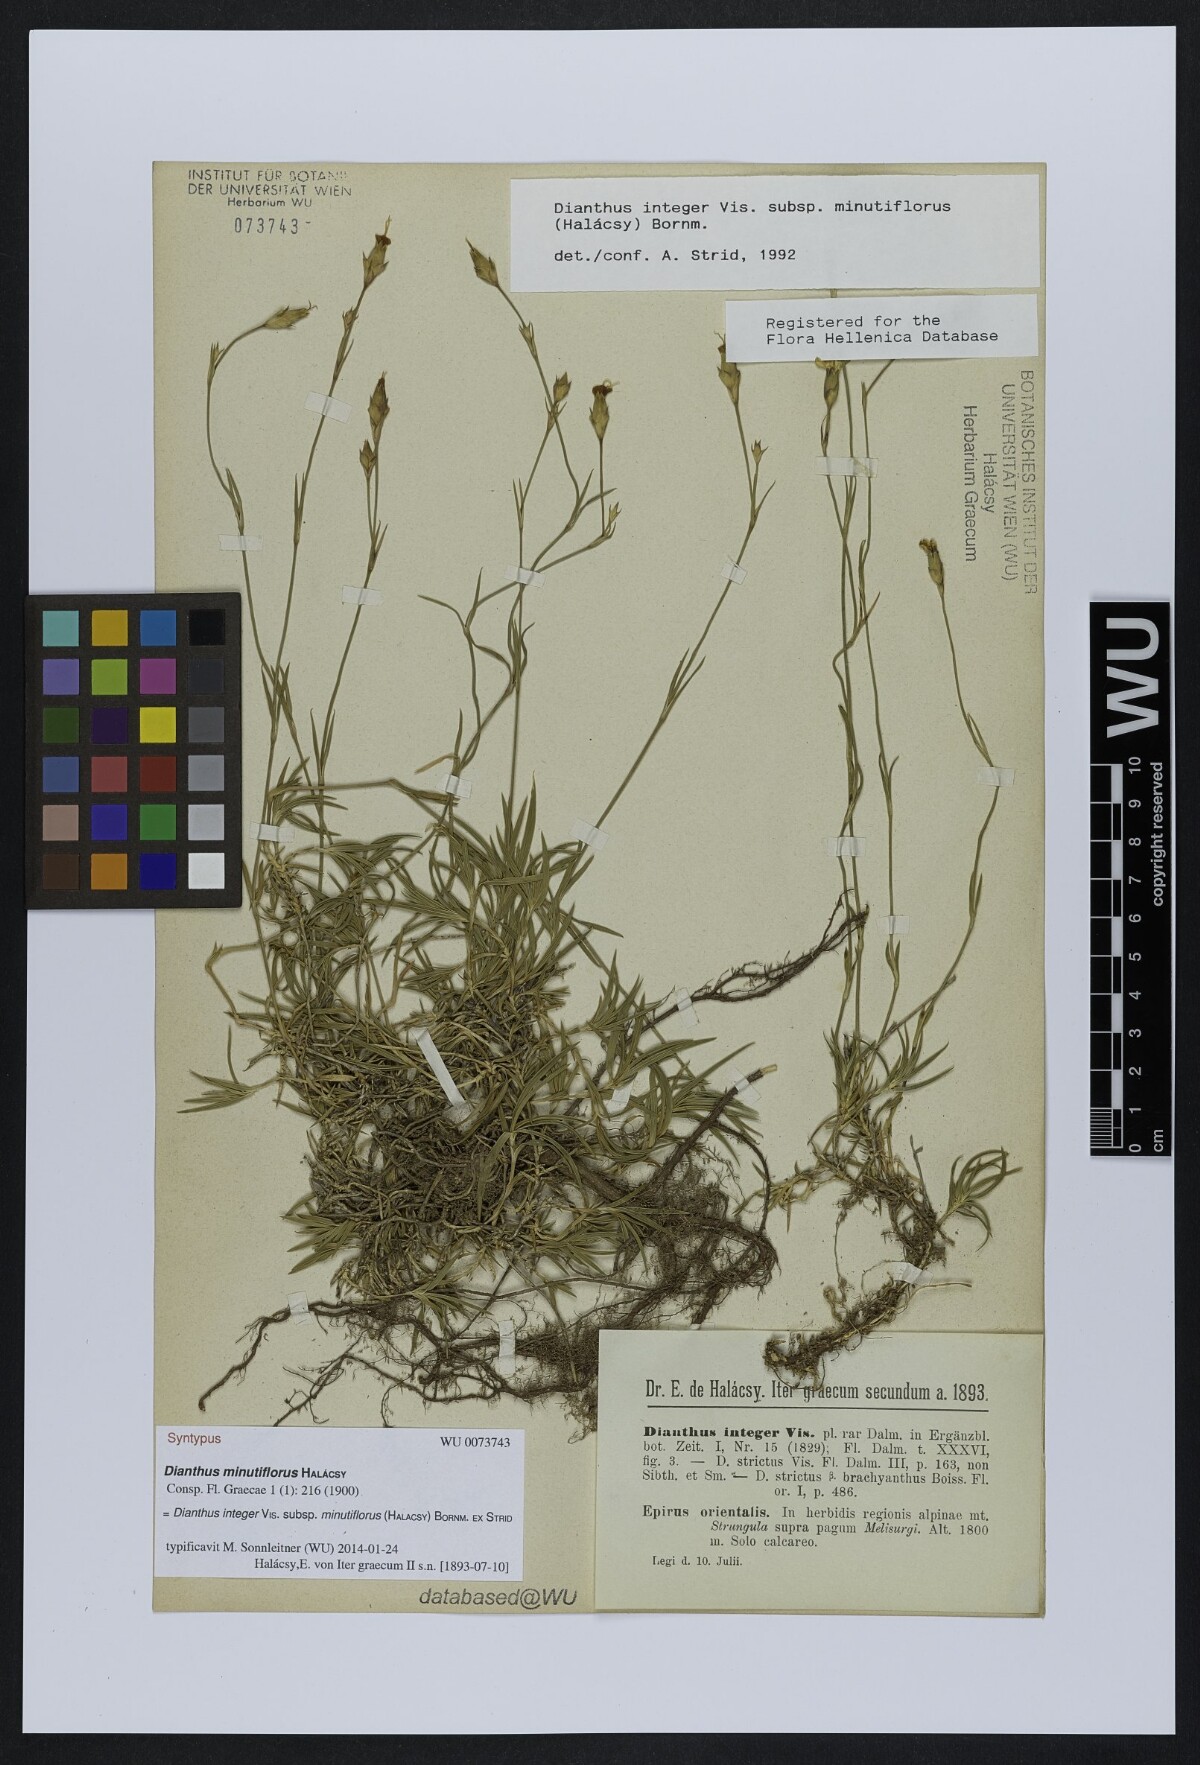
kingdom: Plantae
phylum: Tracheophyta
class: Magnoliopsida
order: Caryophyllales
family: Caryophyllaceae
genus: Dianthus
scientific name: Dianthus integer
